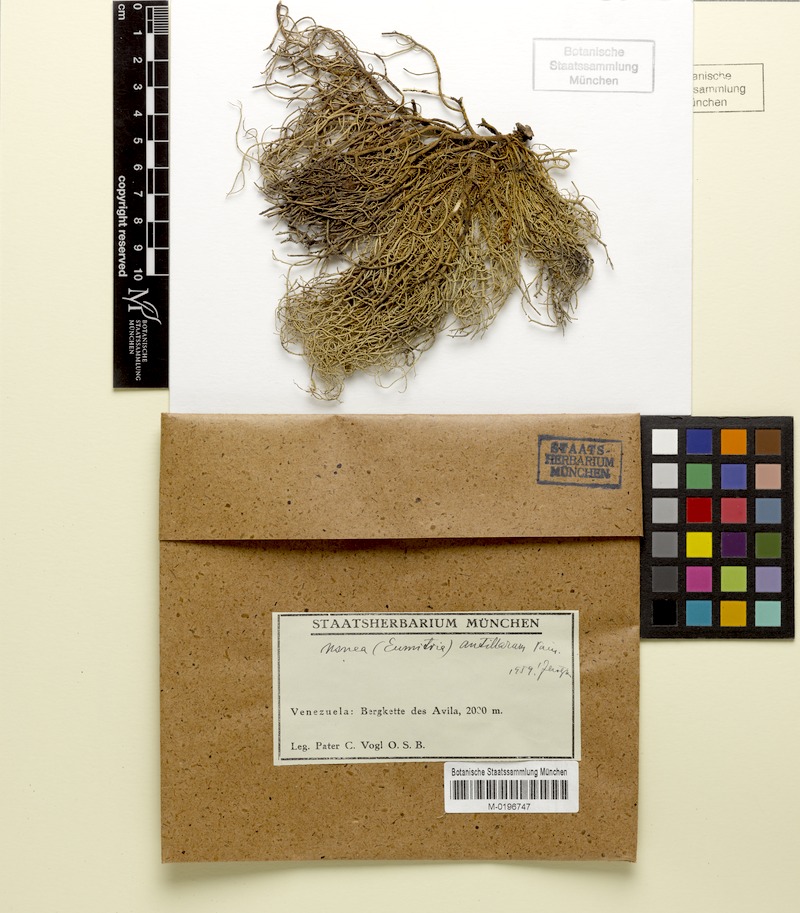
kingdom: Fungi
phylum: Ascomycota
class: Lecanoromycetes
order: Lecanorales
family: Parmeliaceae
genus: Eumitria
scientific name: Eumitria baileyi
